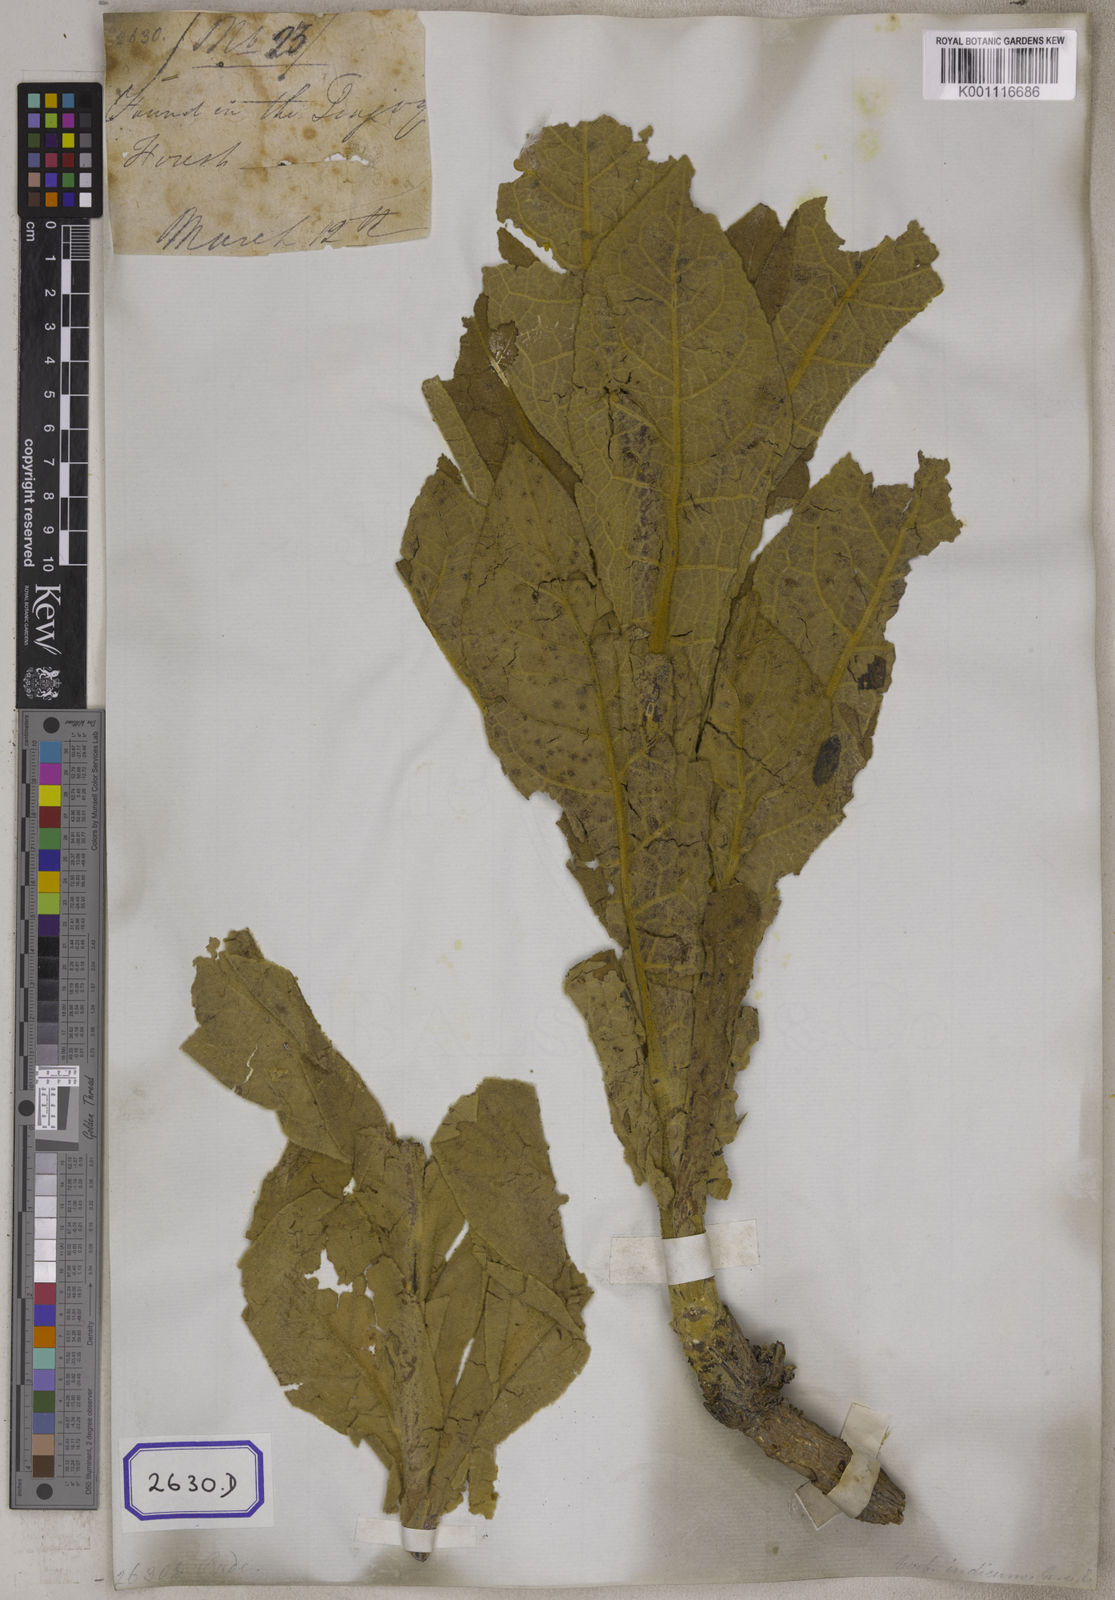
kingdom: Plantae
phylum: Tracheophyta
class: Magnoliopsida
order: Lamiales
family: Scrophulariaceae
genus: Verbascum
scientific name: Verbascum thapsus
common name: Common mullein
